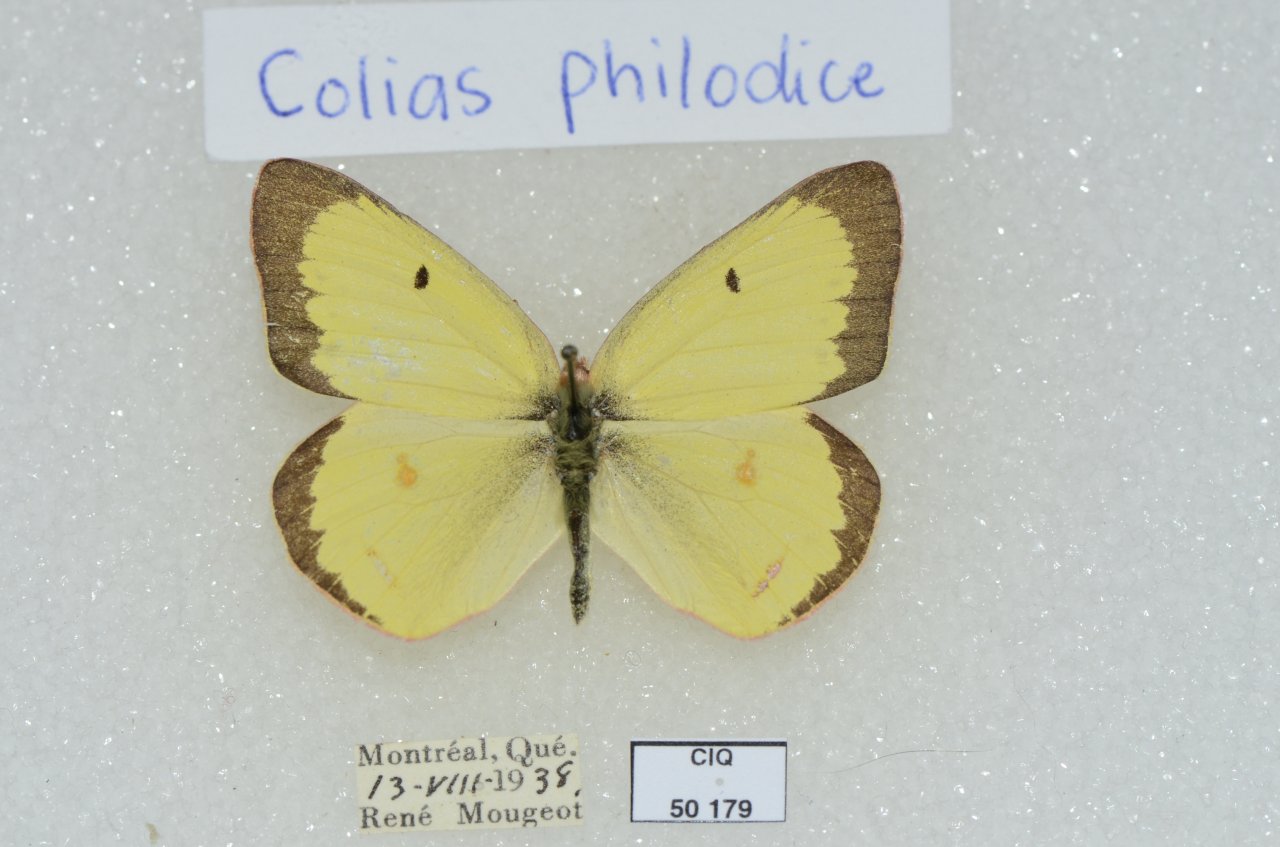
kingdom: Animalia
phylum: Arthropoda
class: Insecta
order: Lepidoptera
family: Pieridae
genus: Colias
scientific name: Colias philodice
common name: Clouded Sulphur
